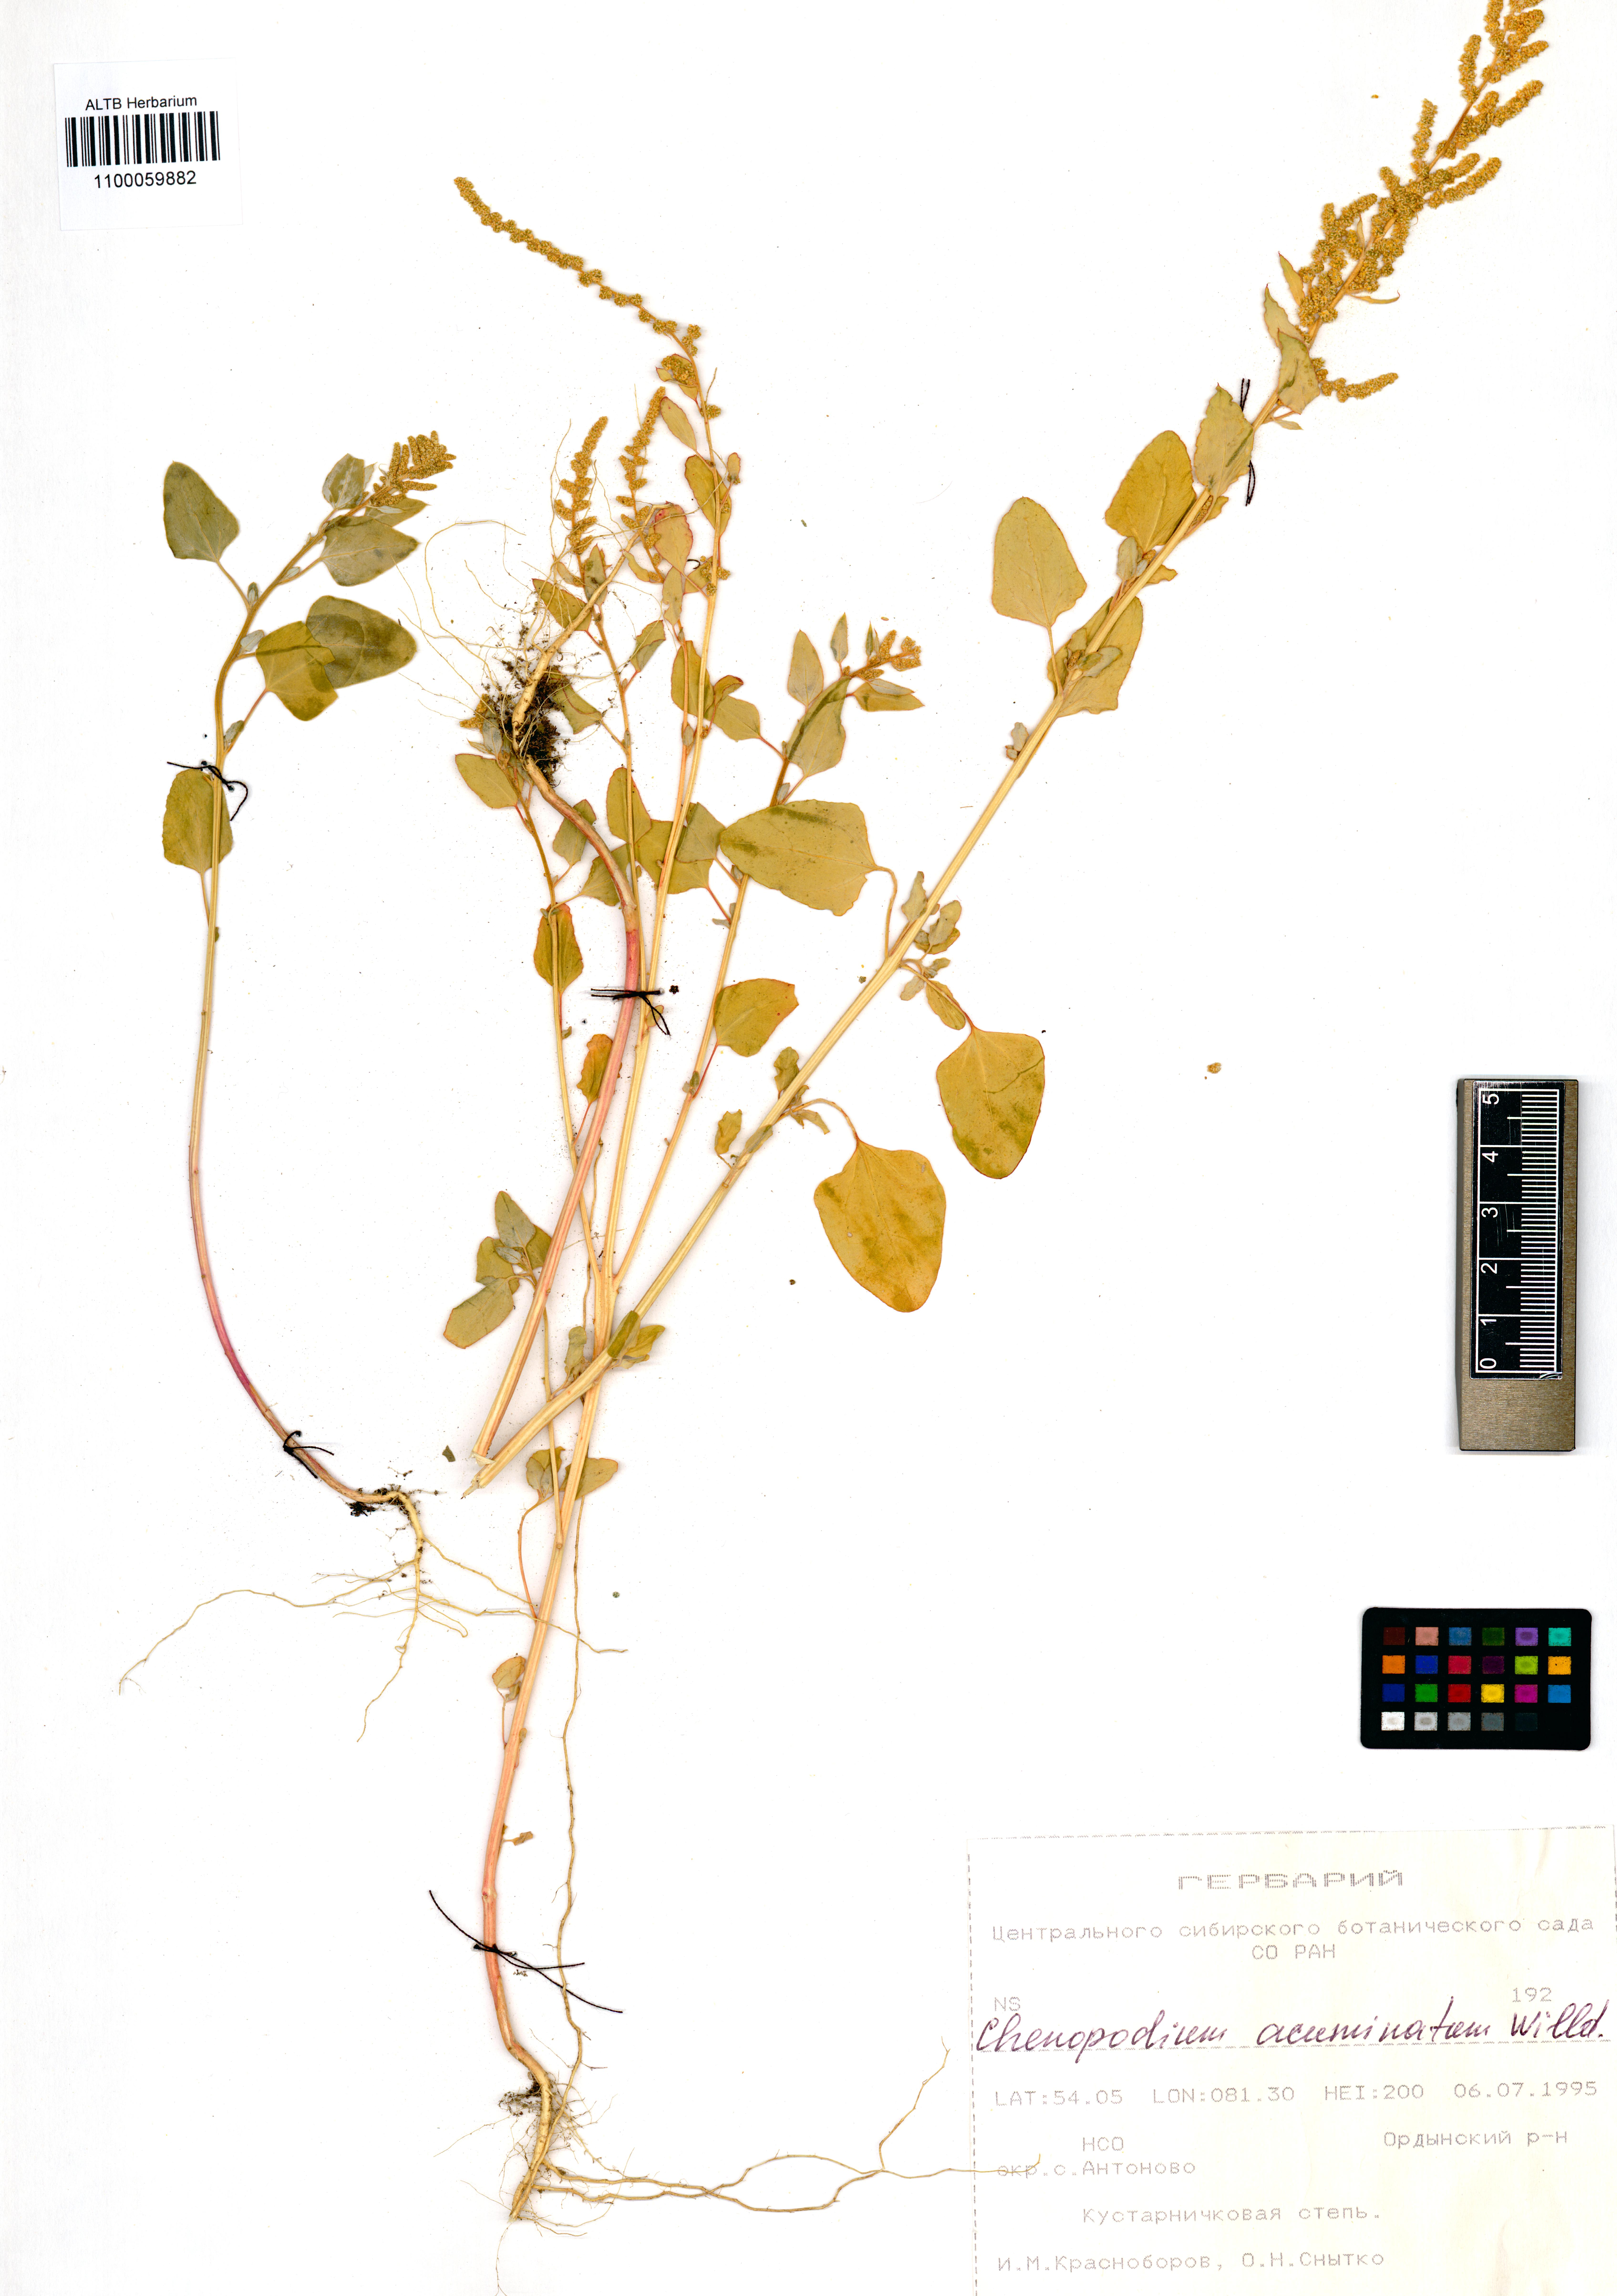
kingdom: Plantae
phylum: Tracheophyta
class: Magnoliopsida
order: Caryophyllales
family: Amaranthaceae
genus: Chenopodium
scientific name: Chenopodium acuminatum
